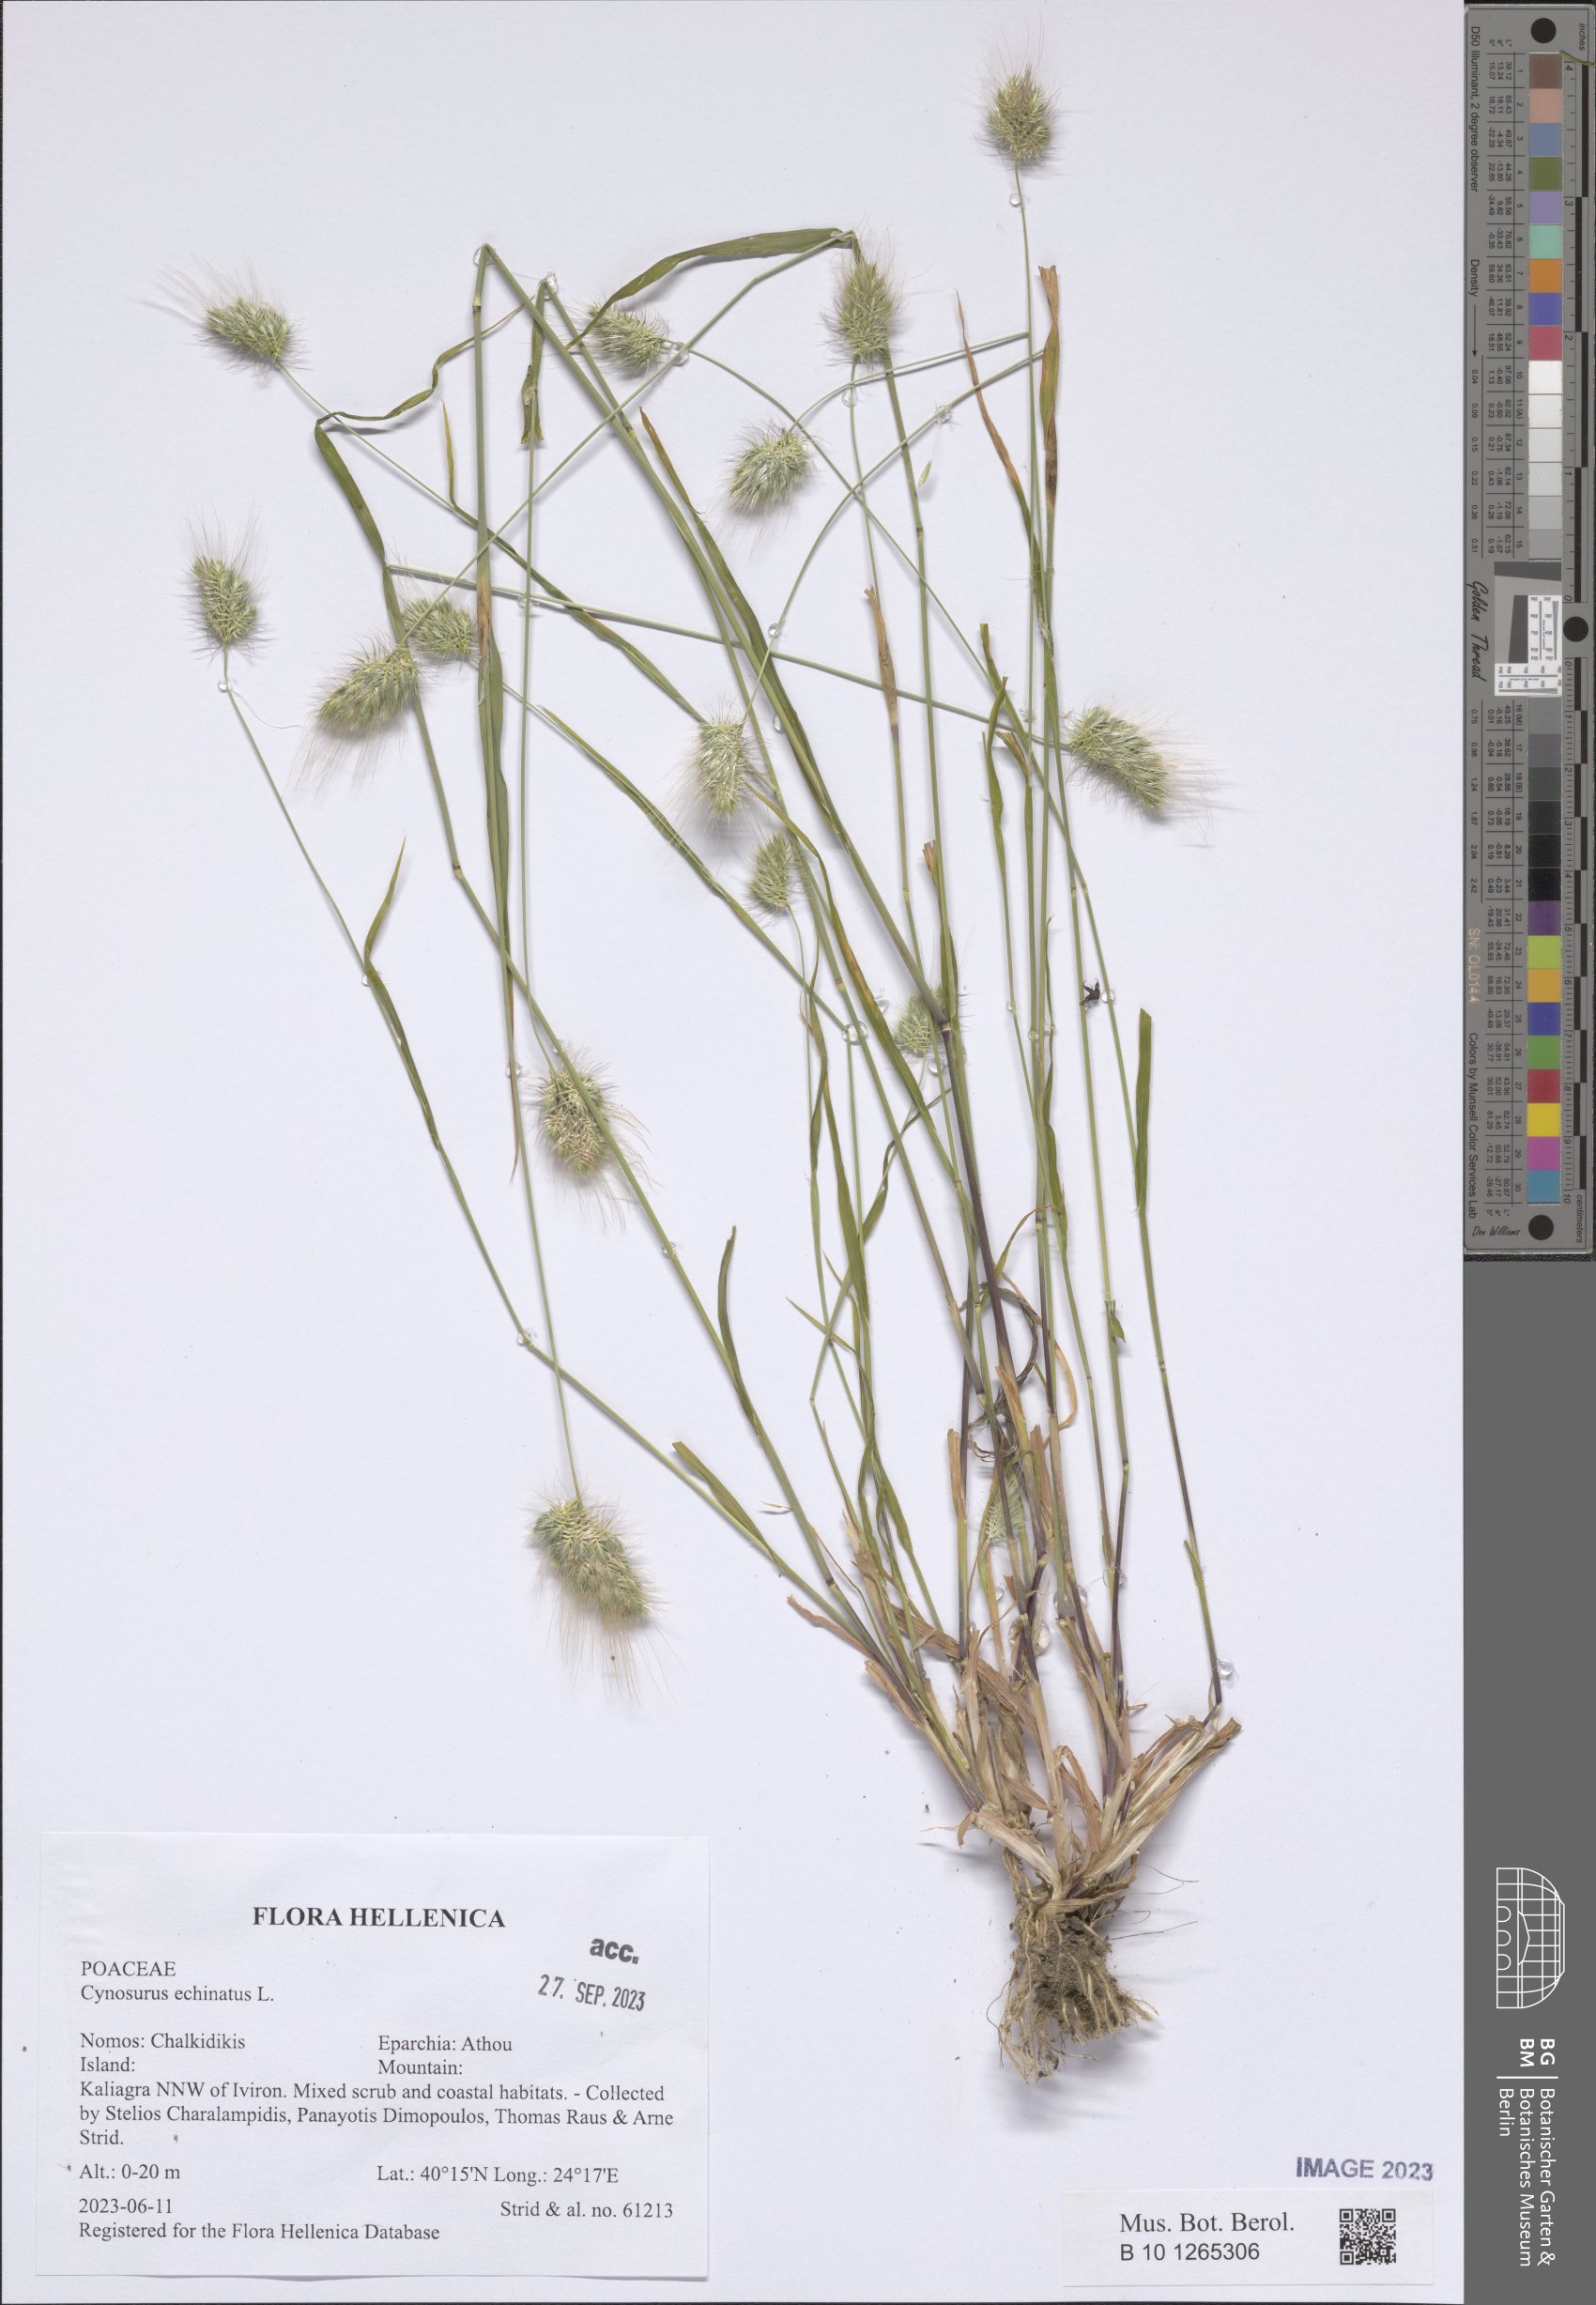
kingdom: Plantae
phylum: Tracheophyta
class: Liliopsida
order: Poales
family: Poaceae
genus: Cynosurus
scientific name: Cynosurus echinatus
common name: Rough dog's-tail
